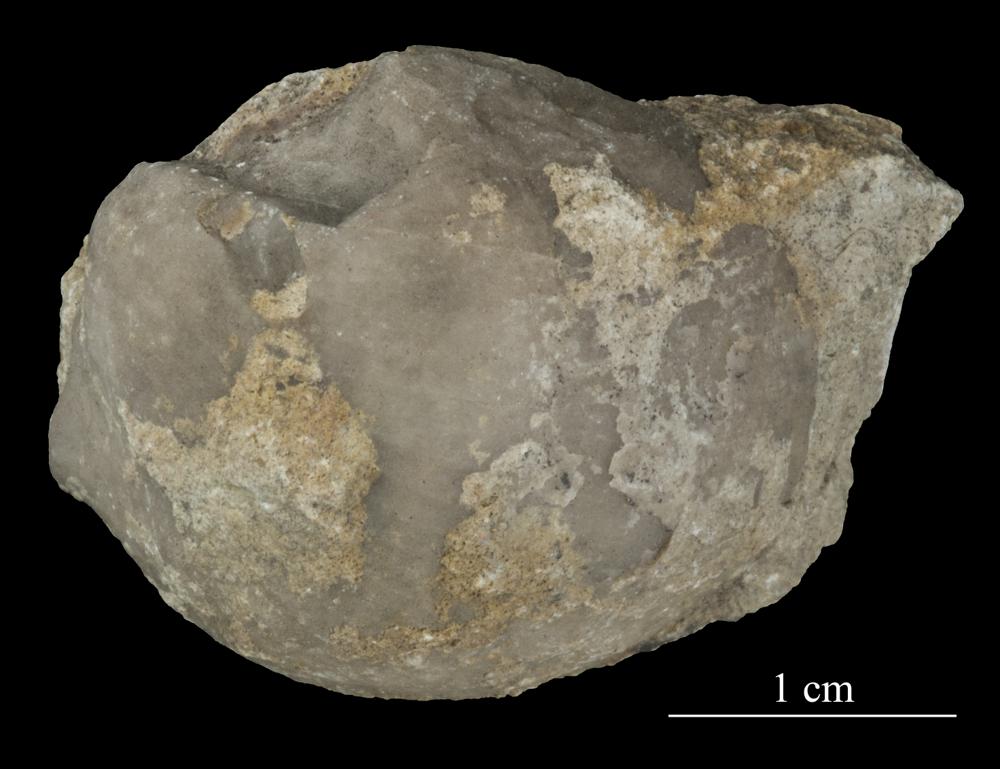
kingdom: Animalia
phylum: Brachiopoda
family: Strophomenidae
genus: Tallinnites
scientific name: Tallinnites Oepikina imbrexoidea
